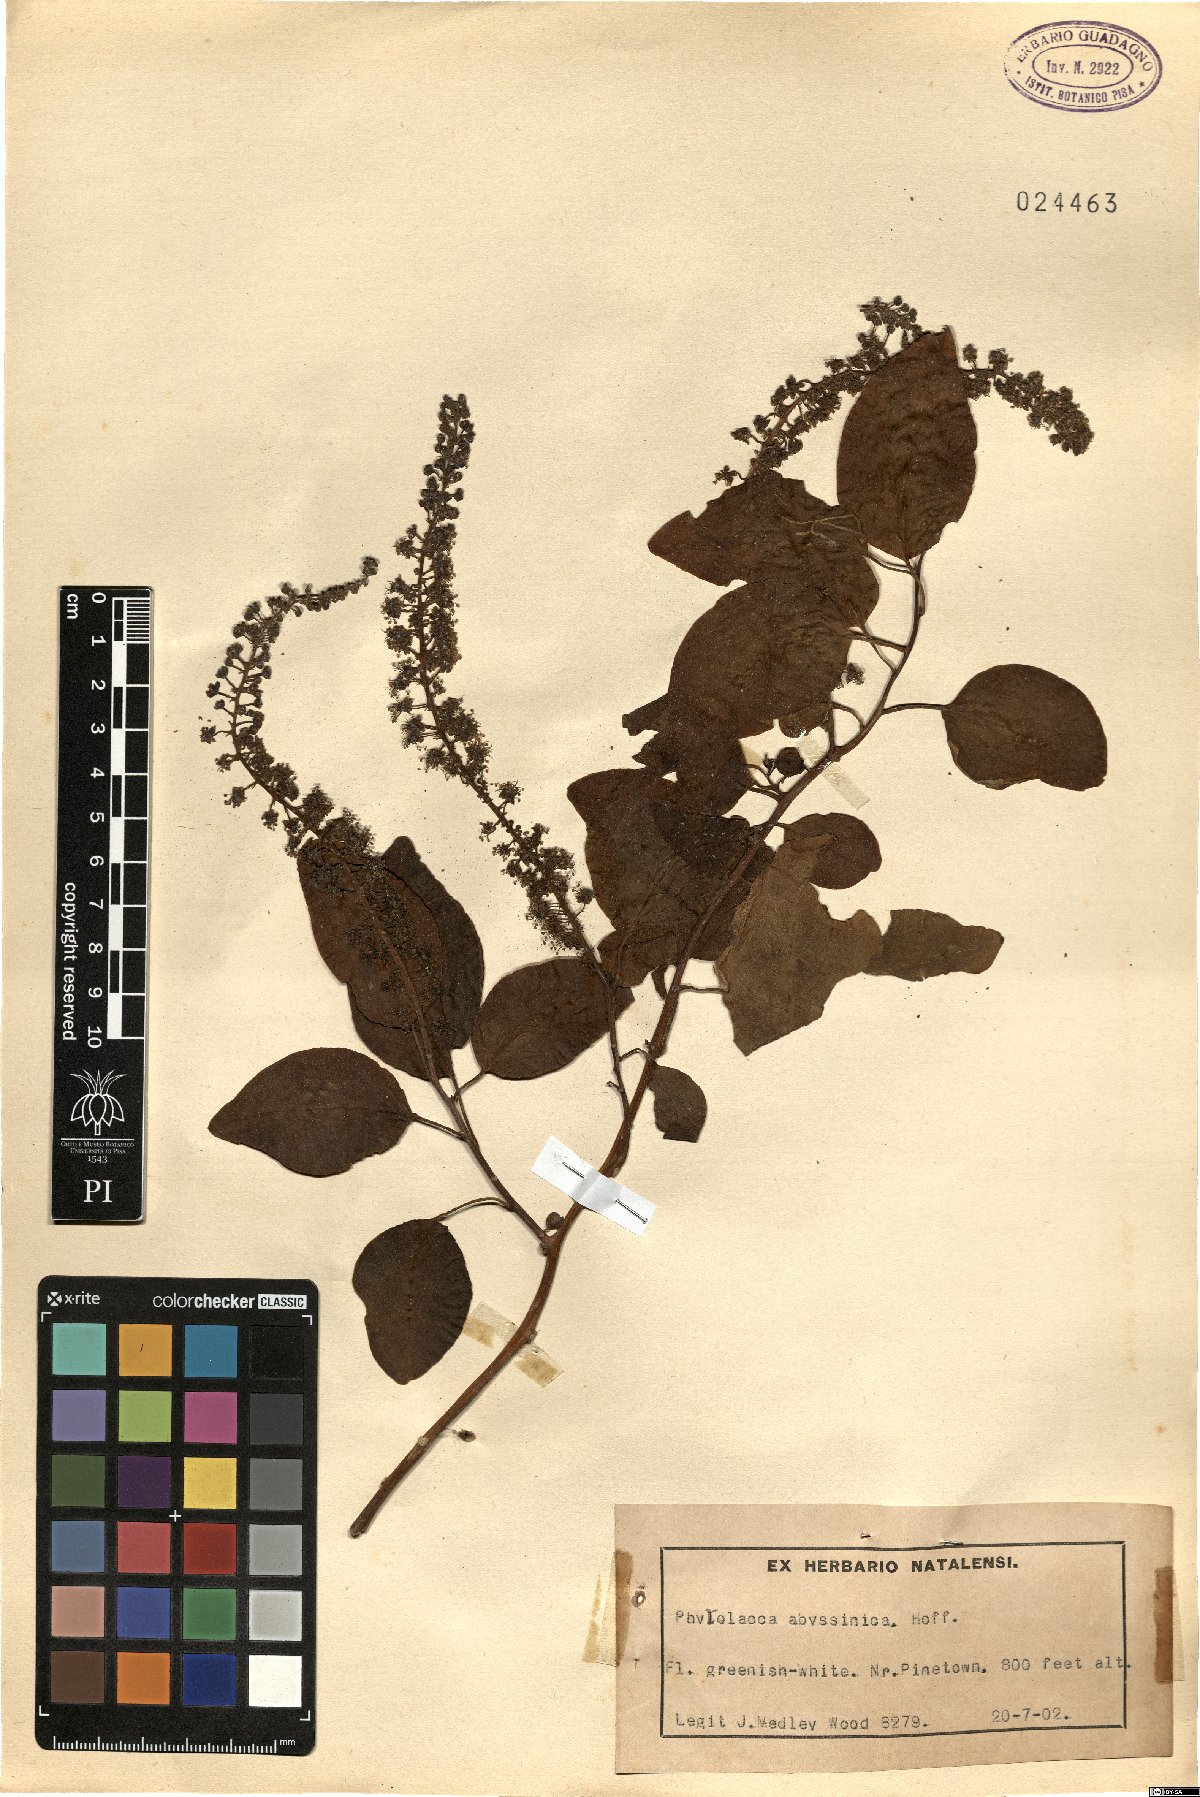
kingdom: Plantae
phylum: Tracheophyta
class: Magnoliopsida
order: Caryophyllales
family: Phytolaccaceae
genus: Phytolacca
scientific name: Phytolacca dodecandra
